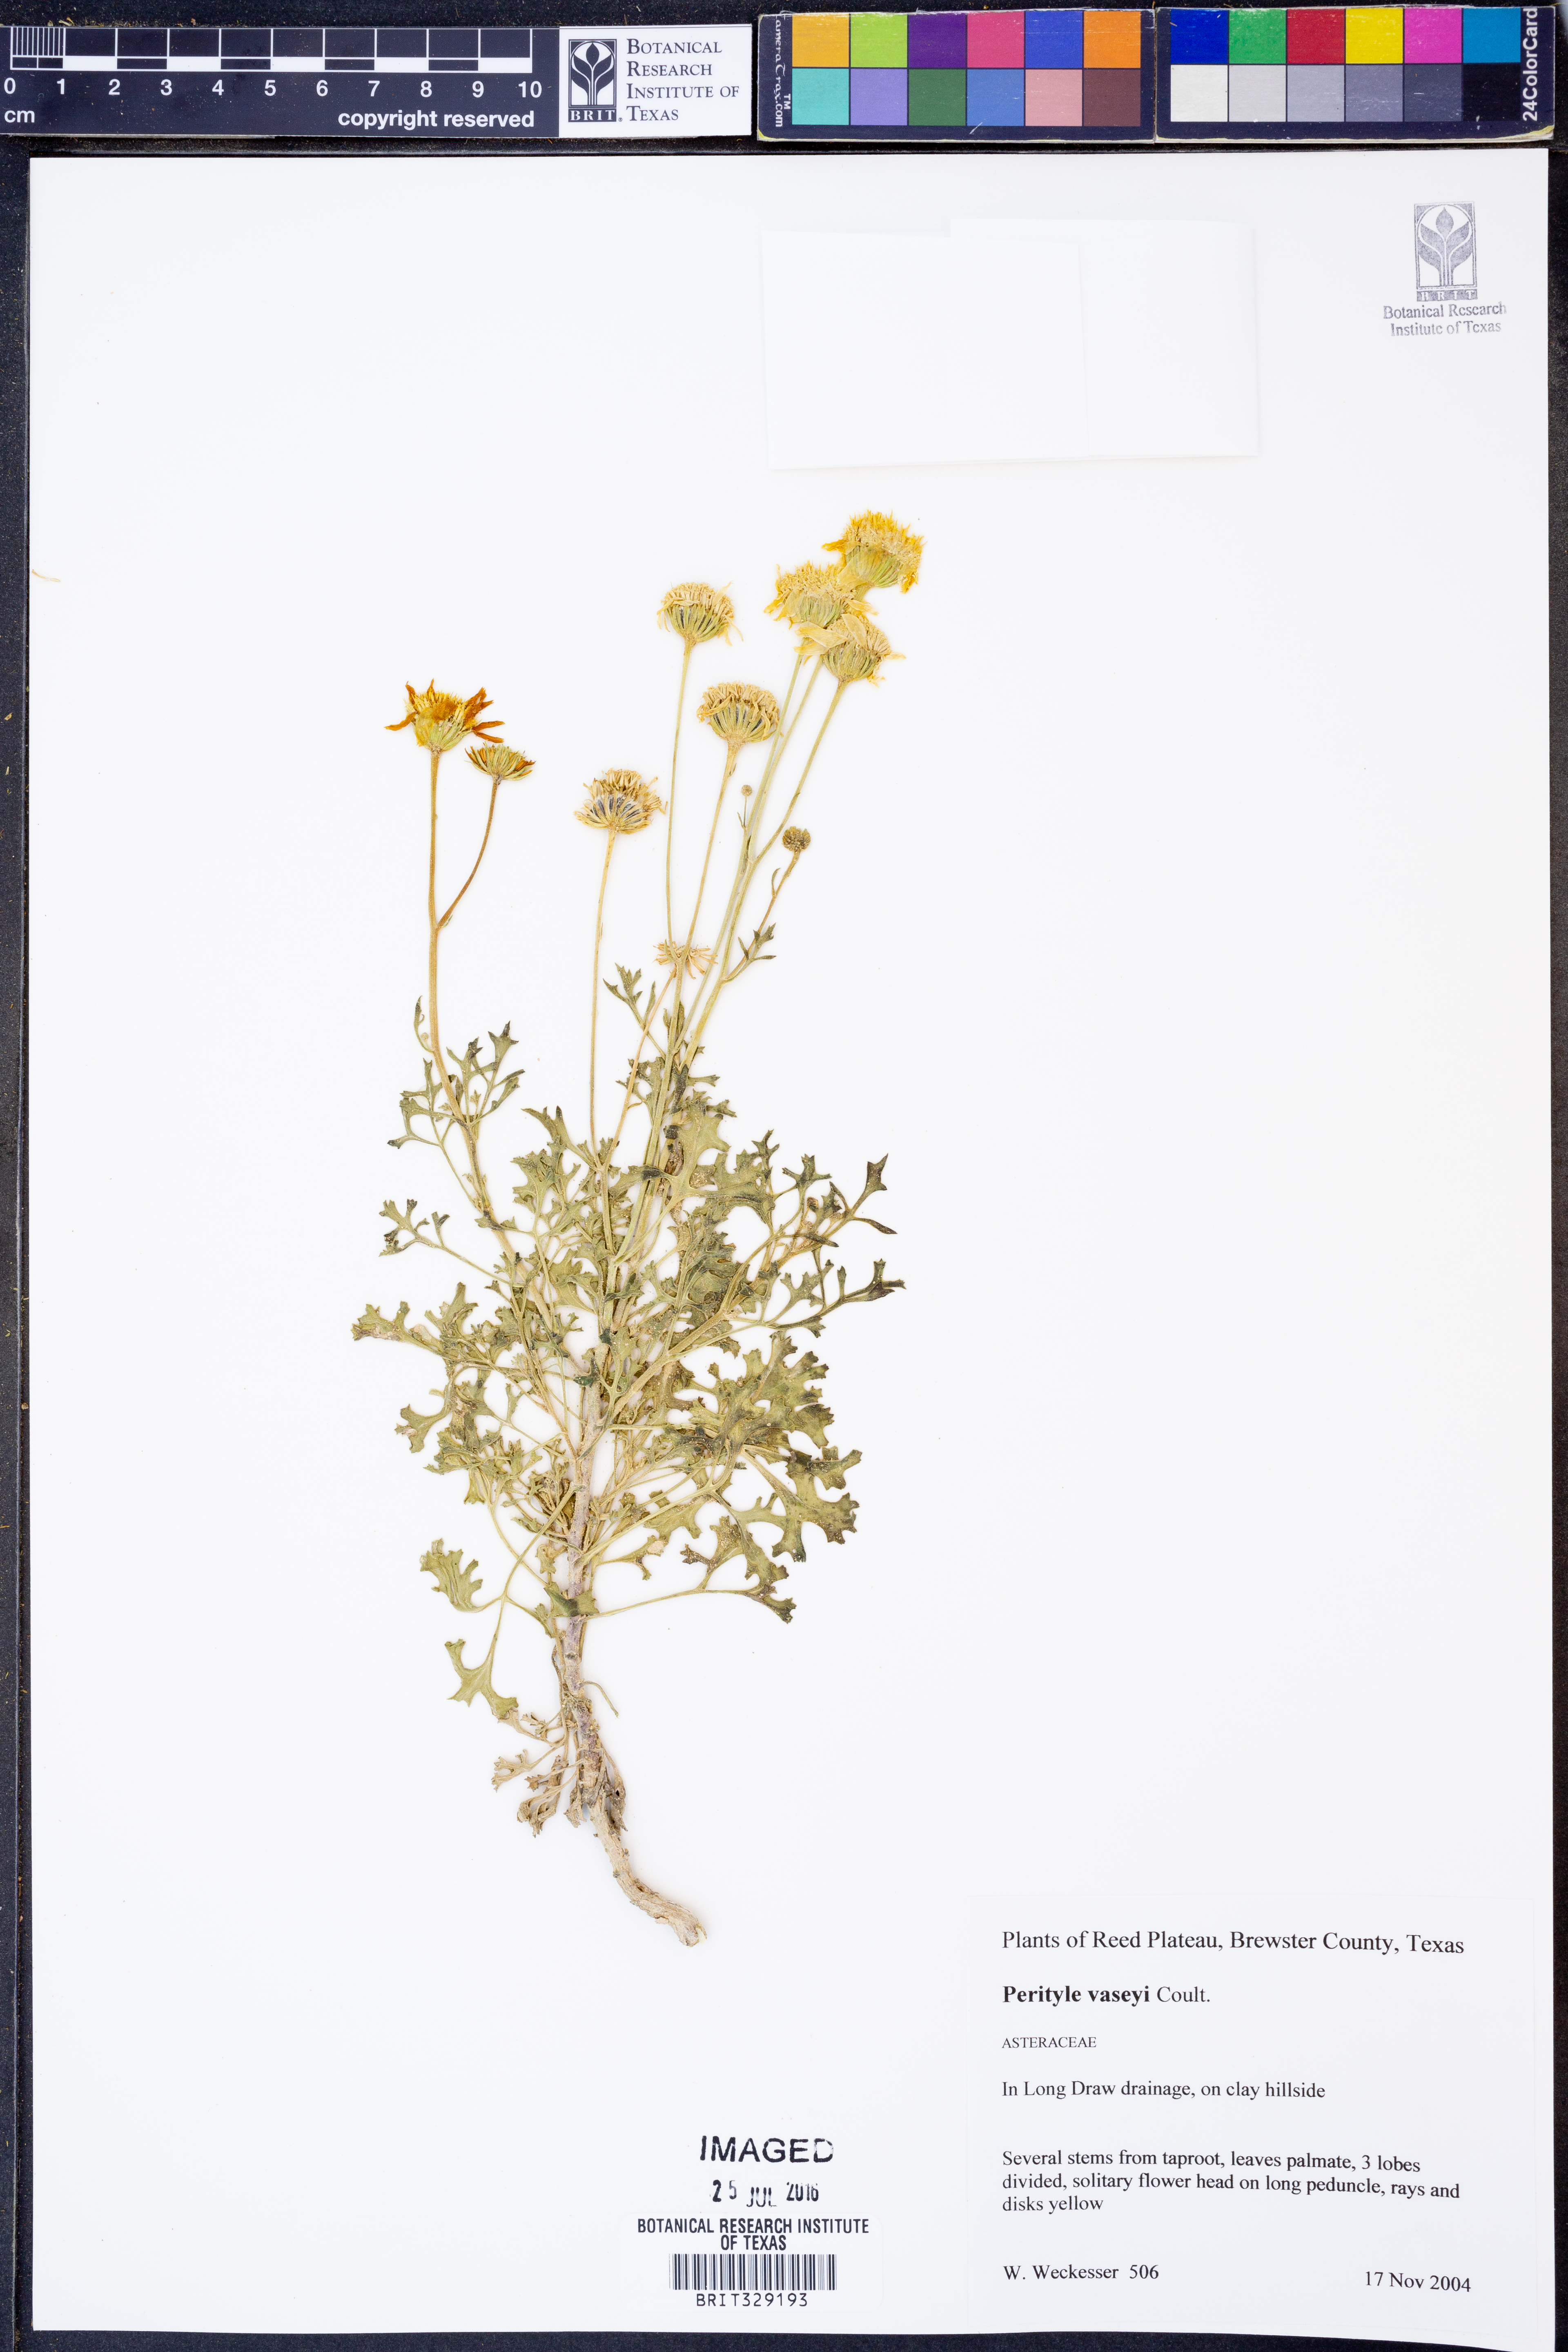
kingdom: Plantae
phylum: Tracheophyta
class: Magnoliopsida
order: Asterales
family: Asteraceae
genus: Laphamia
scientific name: Laphamia vaseyi
